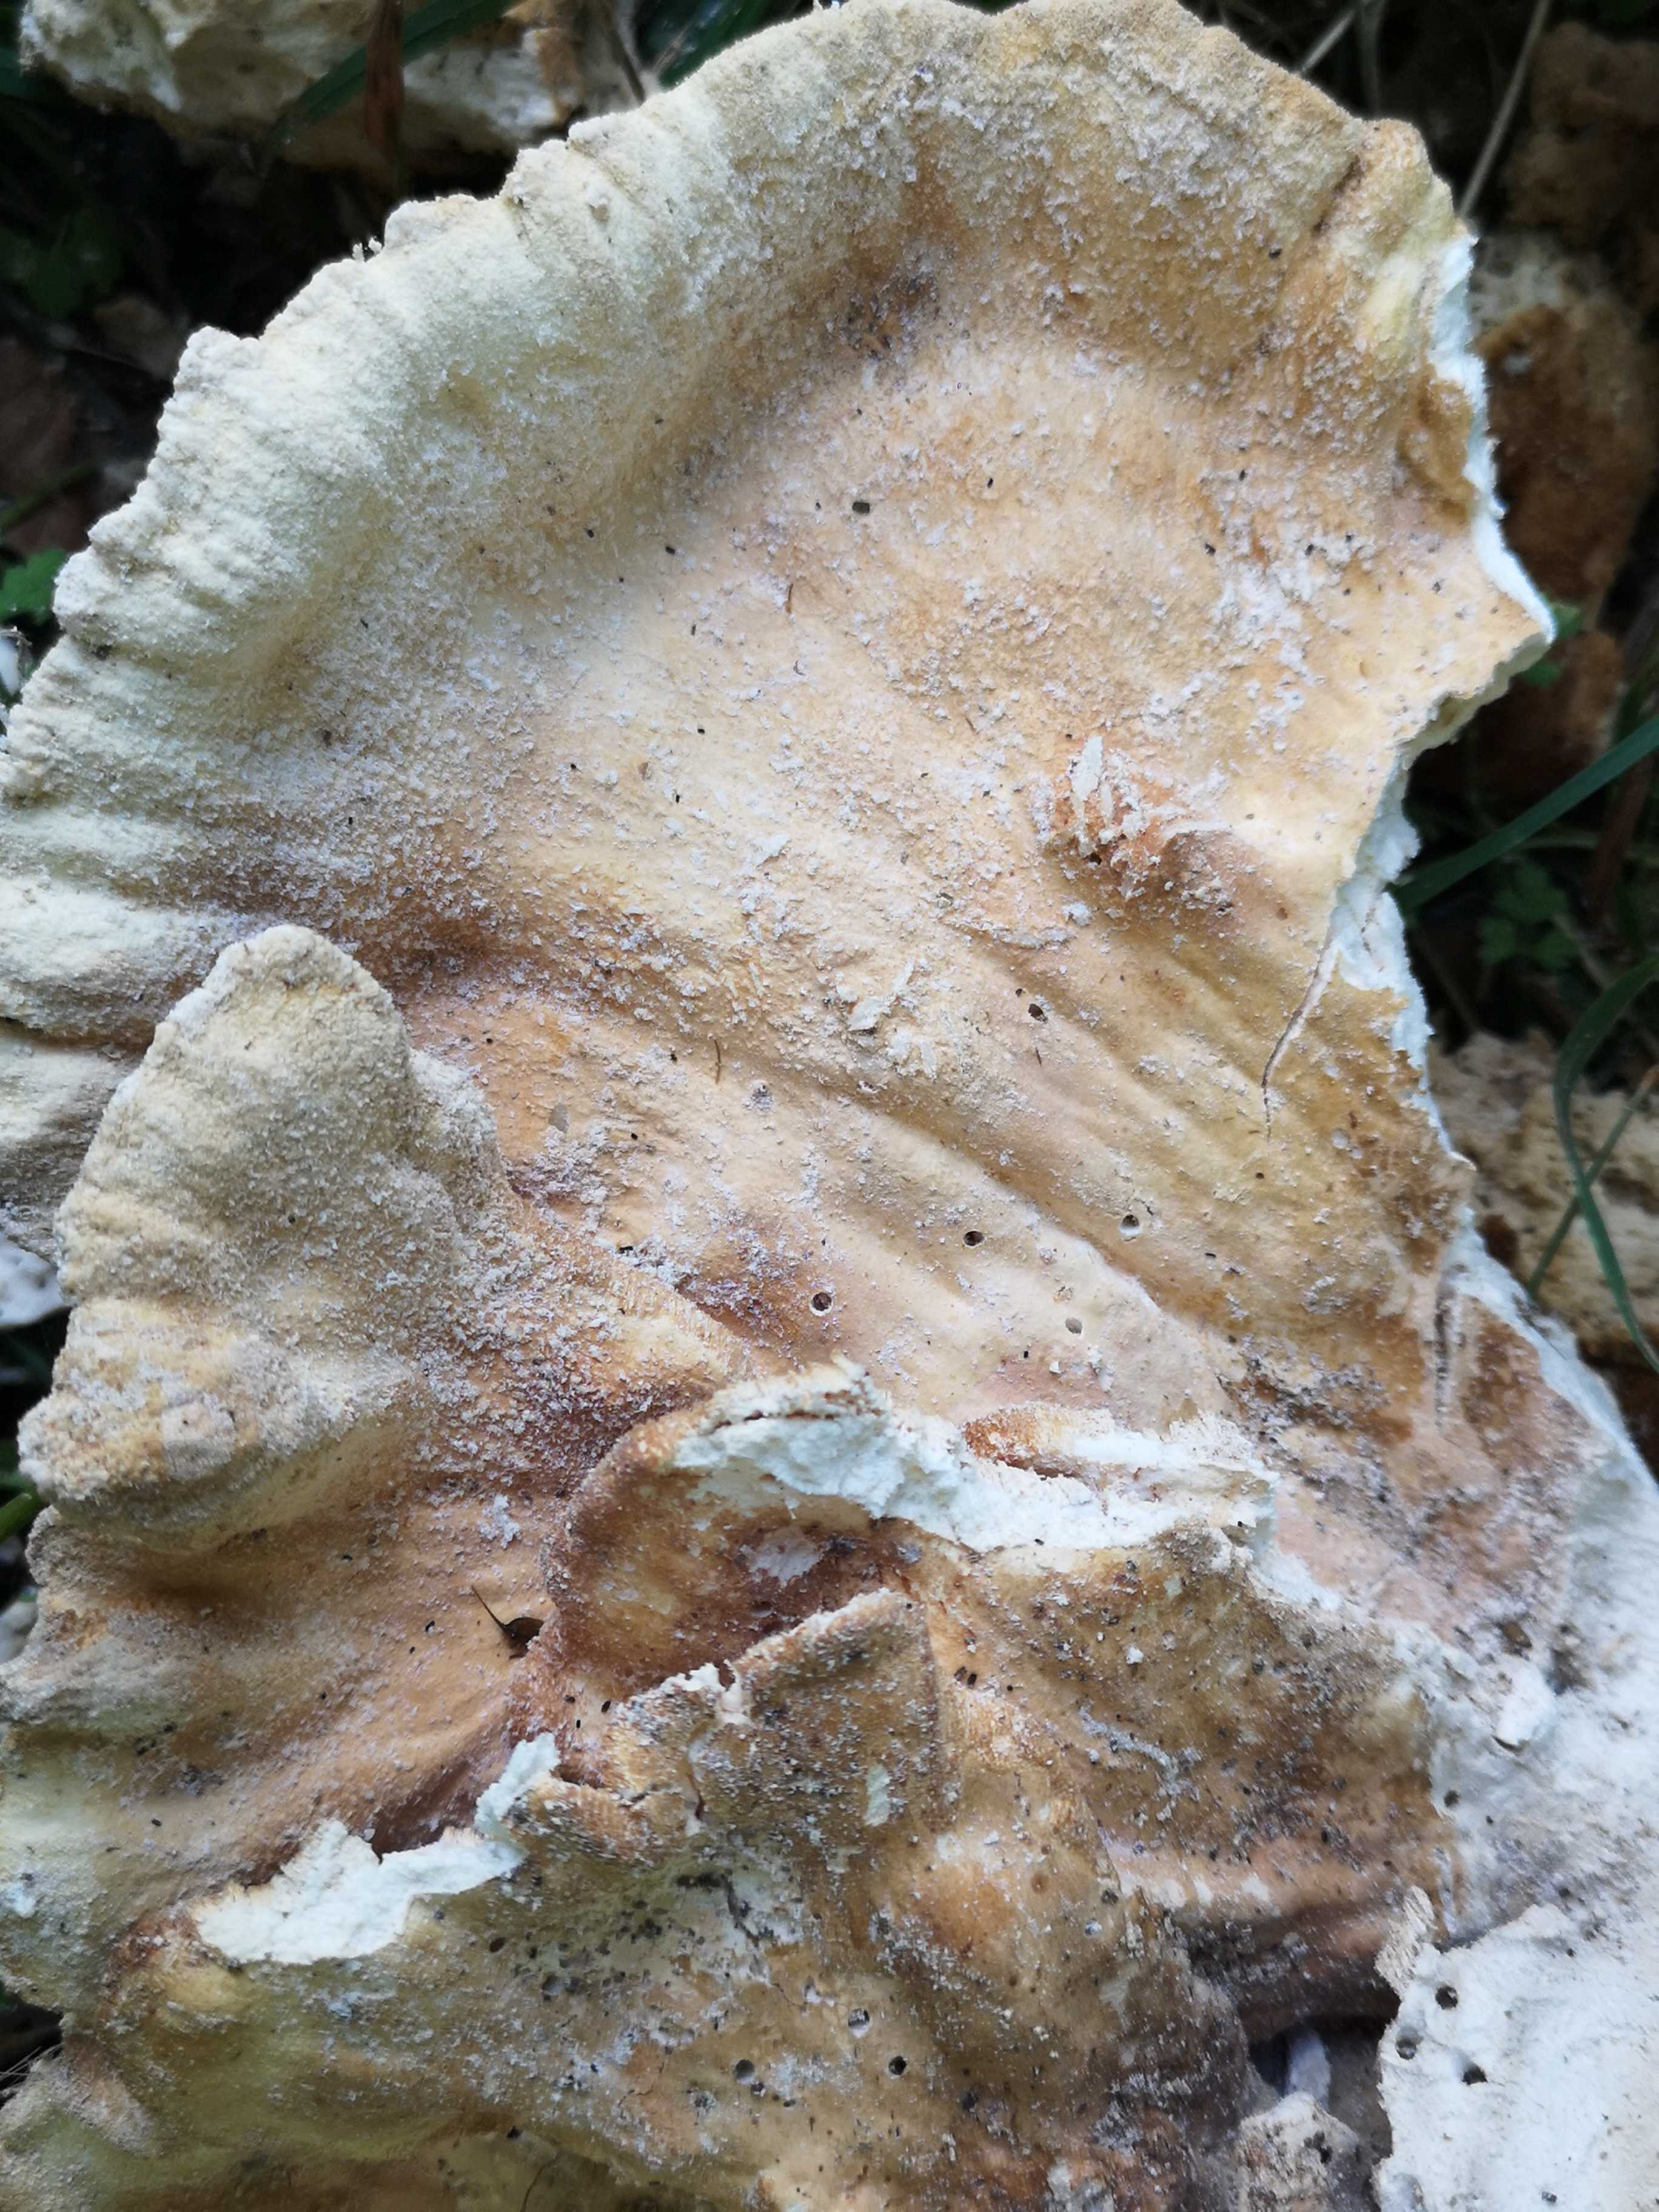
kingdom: Fungi
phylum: Basidiomycota
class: Agaricomycetes
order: Polyporales
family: Laetiporaceae
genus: Laetiporus
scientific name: Laetiporus sulphureus
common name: svovlporesvamp
